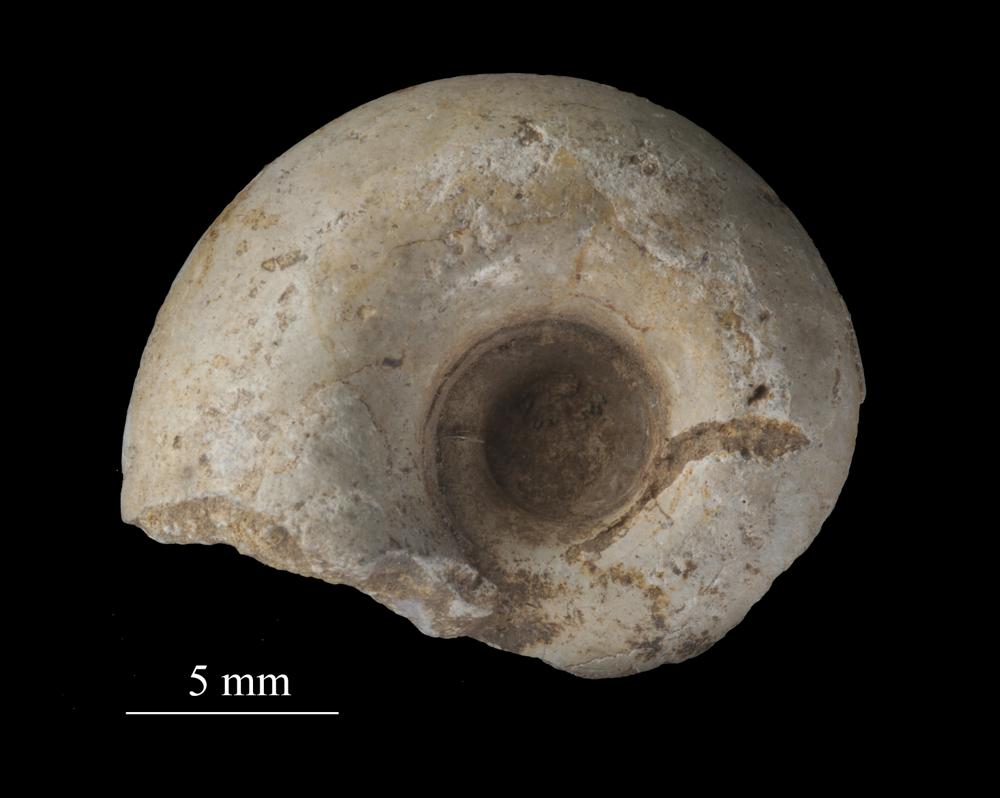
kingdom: Animalia
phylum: Mollusca
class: Cephalopoda
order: Goniatitida
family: Goniatitidae
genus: Goniatites
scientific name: Goniatites silurica
